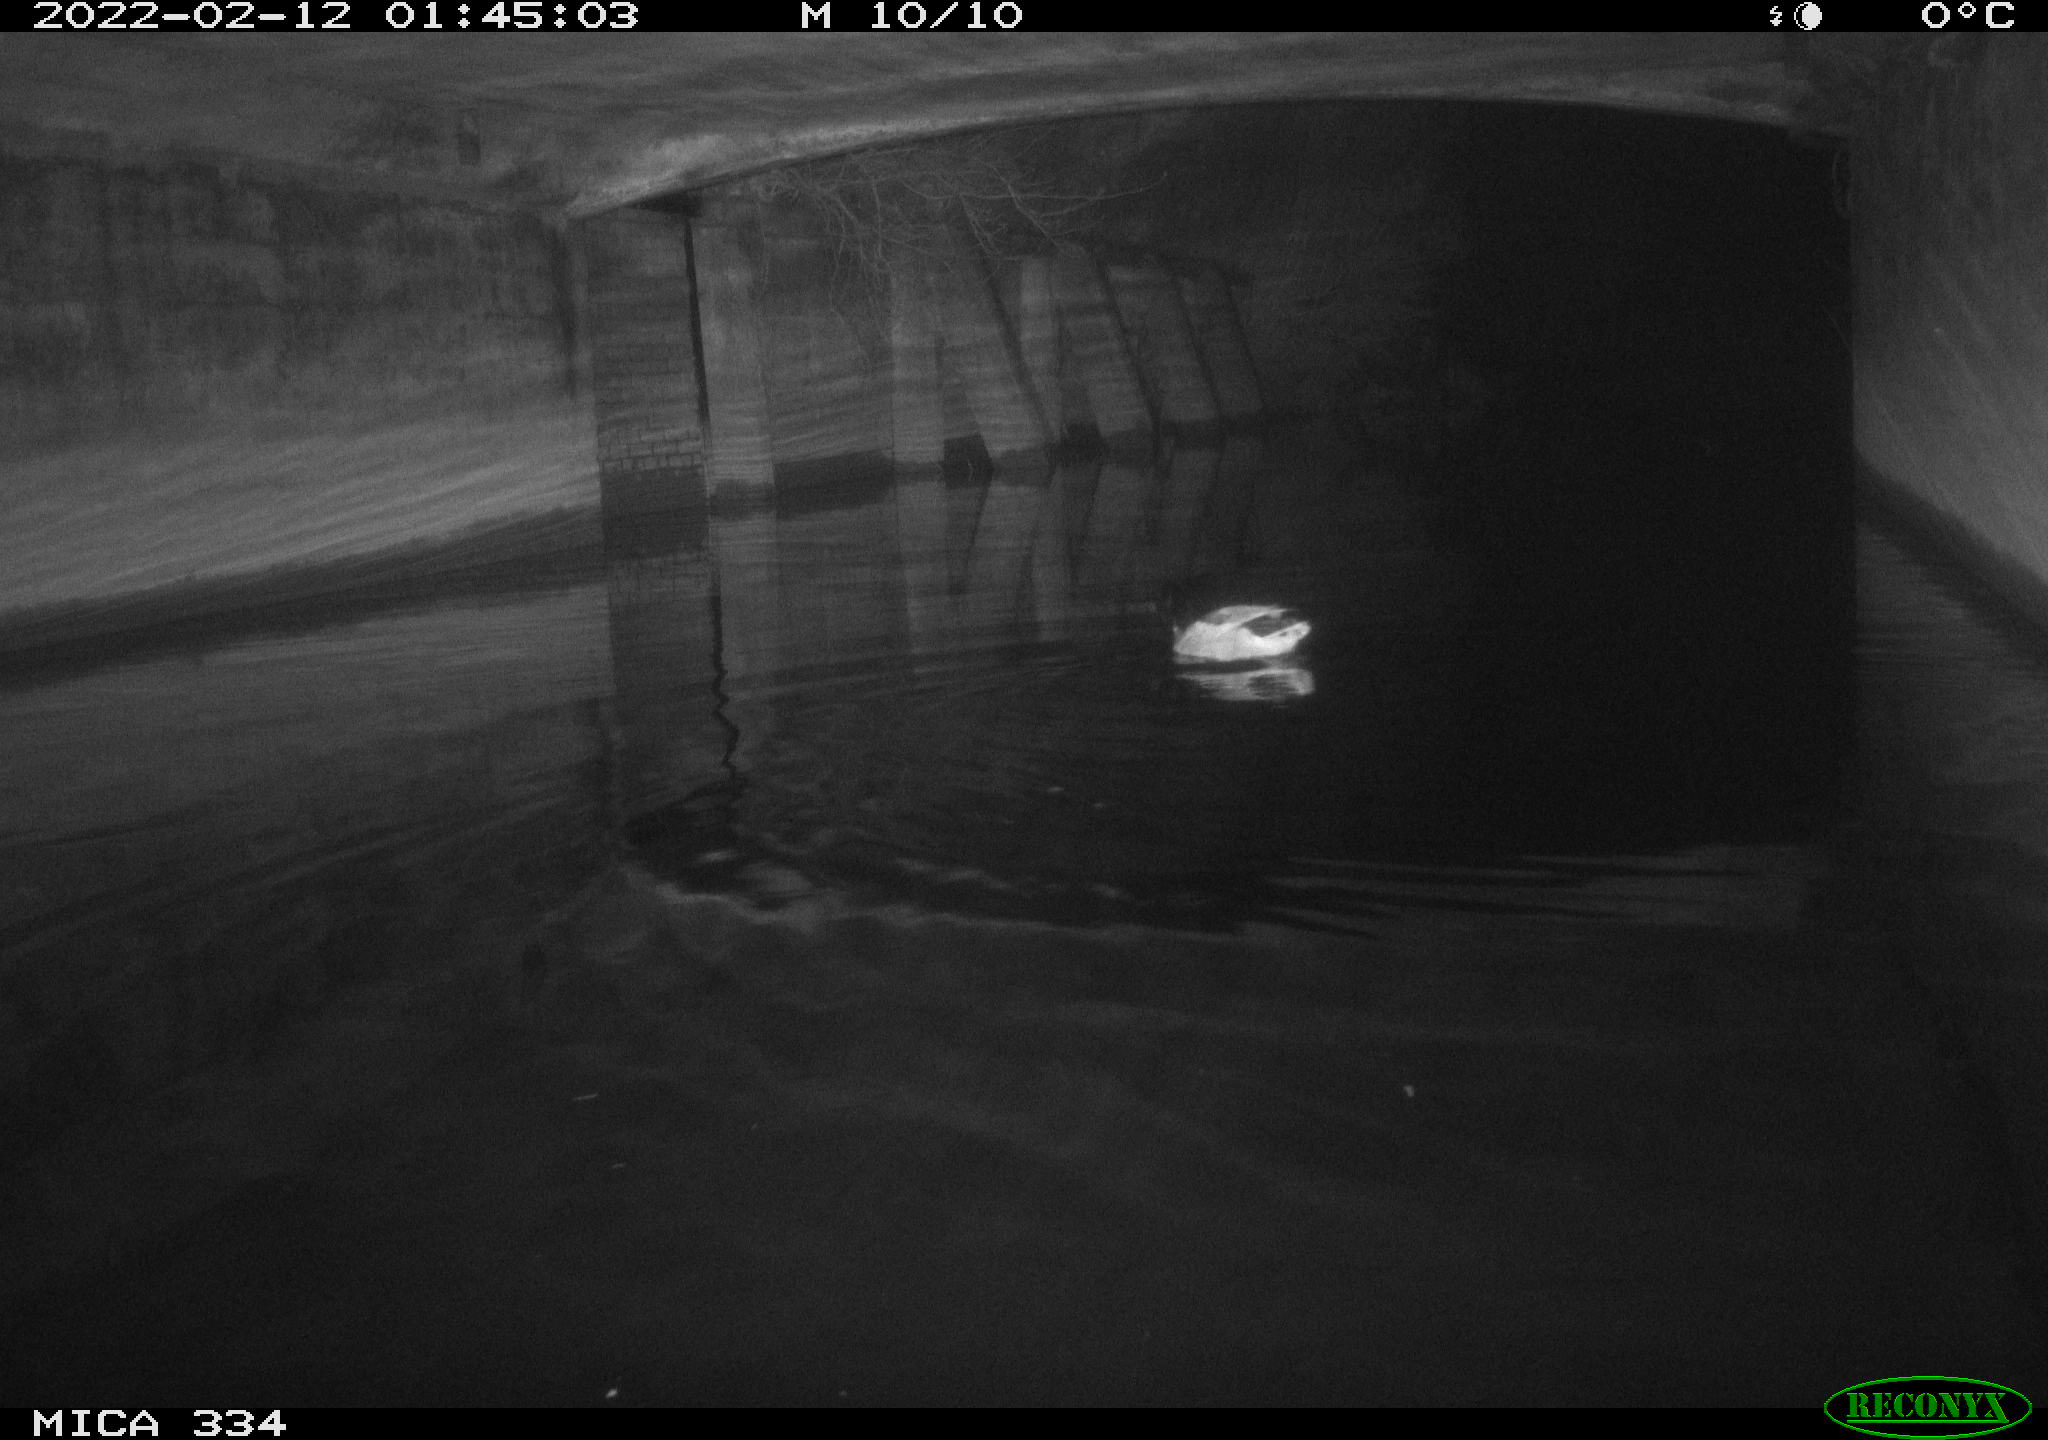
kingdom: Animalia
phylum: Chordata
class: Aves
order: Anseriformes
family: Anatidae
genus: Anas
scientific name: Anas platyrhynchos
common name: Mallard
